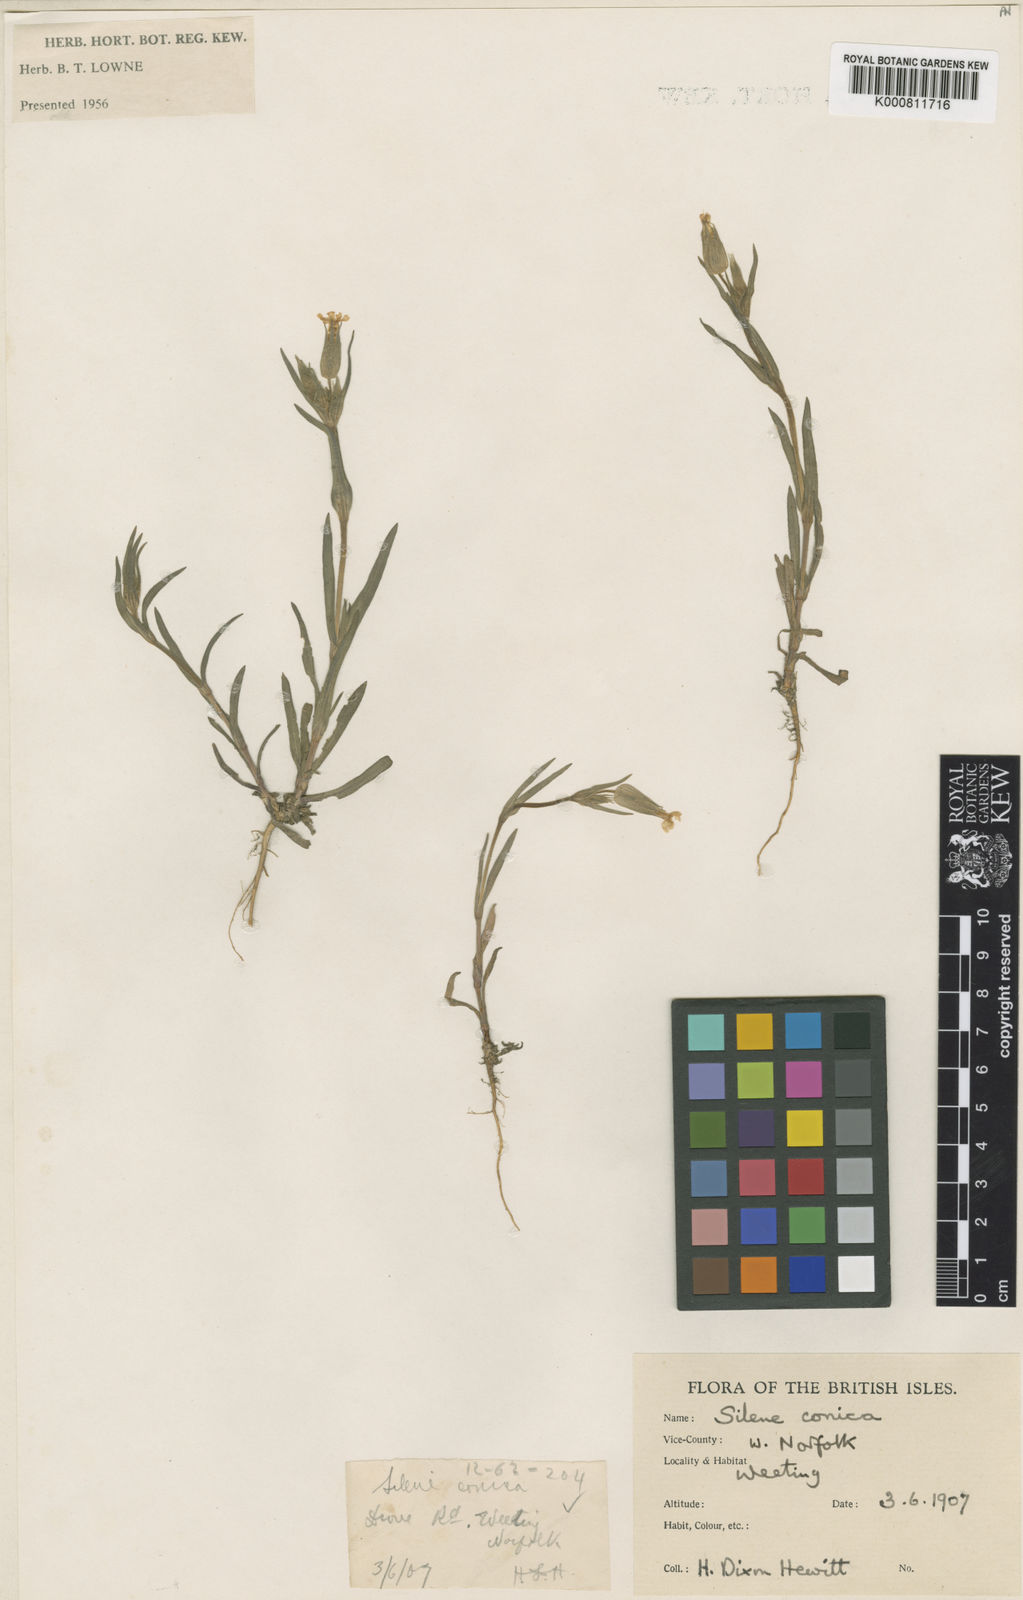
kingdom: Plantae
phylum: Tracheophyta
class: Magnoliopsida
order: Caryophyllales
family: Caryophyllaceae
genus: Silene
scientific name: Silene conica
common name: Sand catchfly
